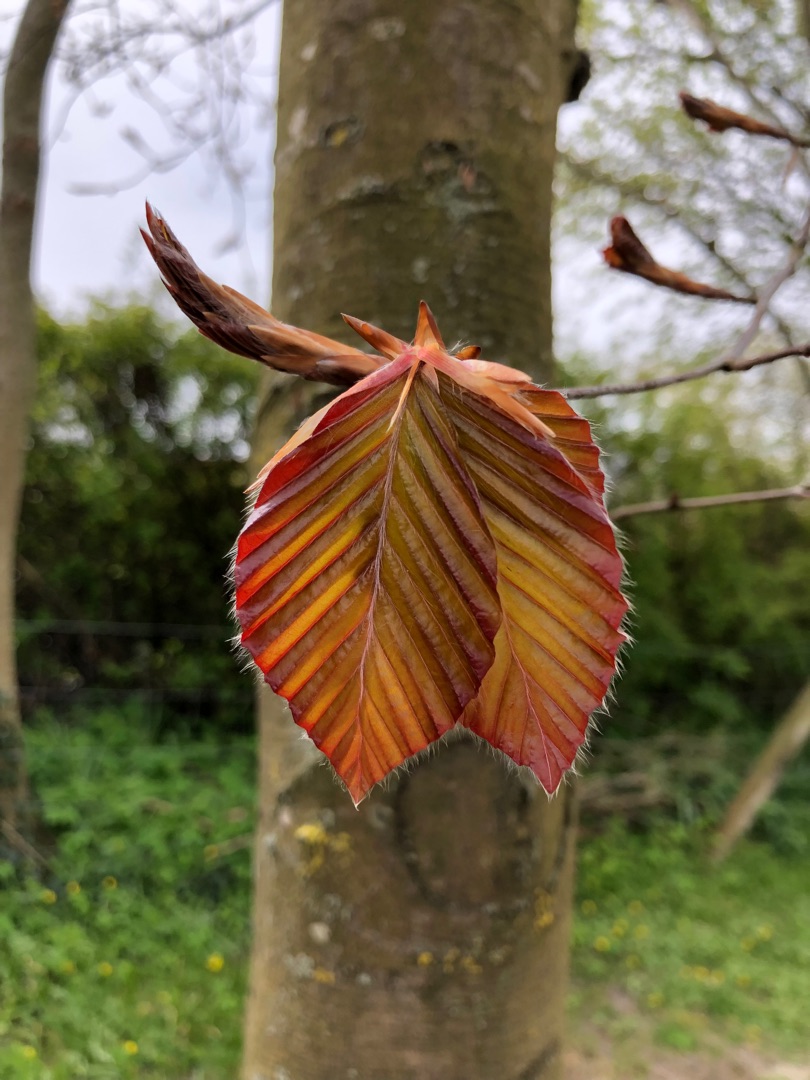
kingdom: Plantae
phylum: Tracheophyta
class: Magnoliopsida
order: Fagales
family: Fagaceae
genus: Fagus
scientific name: Fagus sylvatica
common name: Bøg
